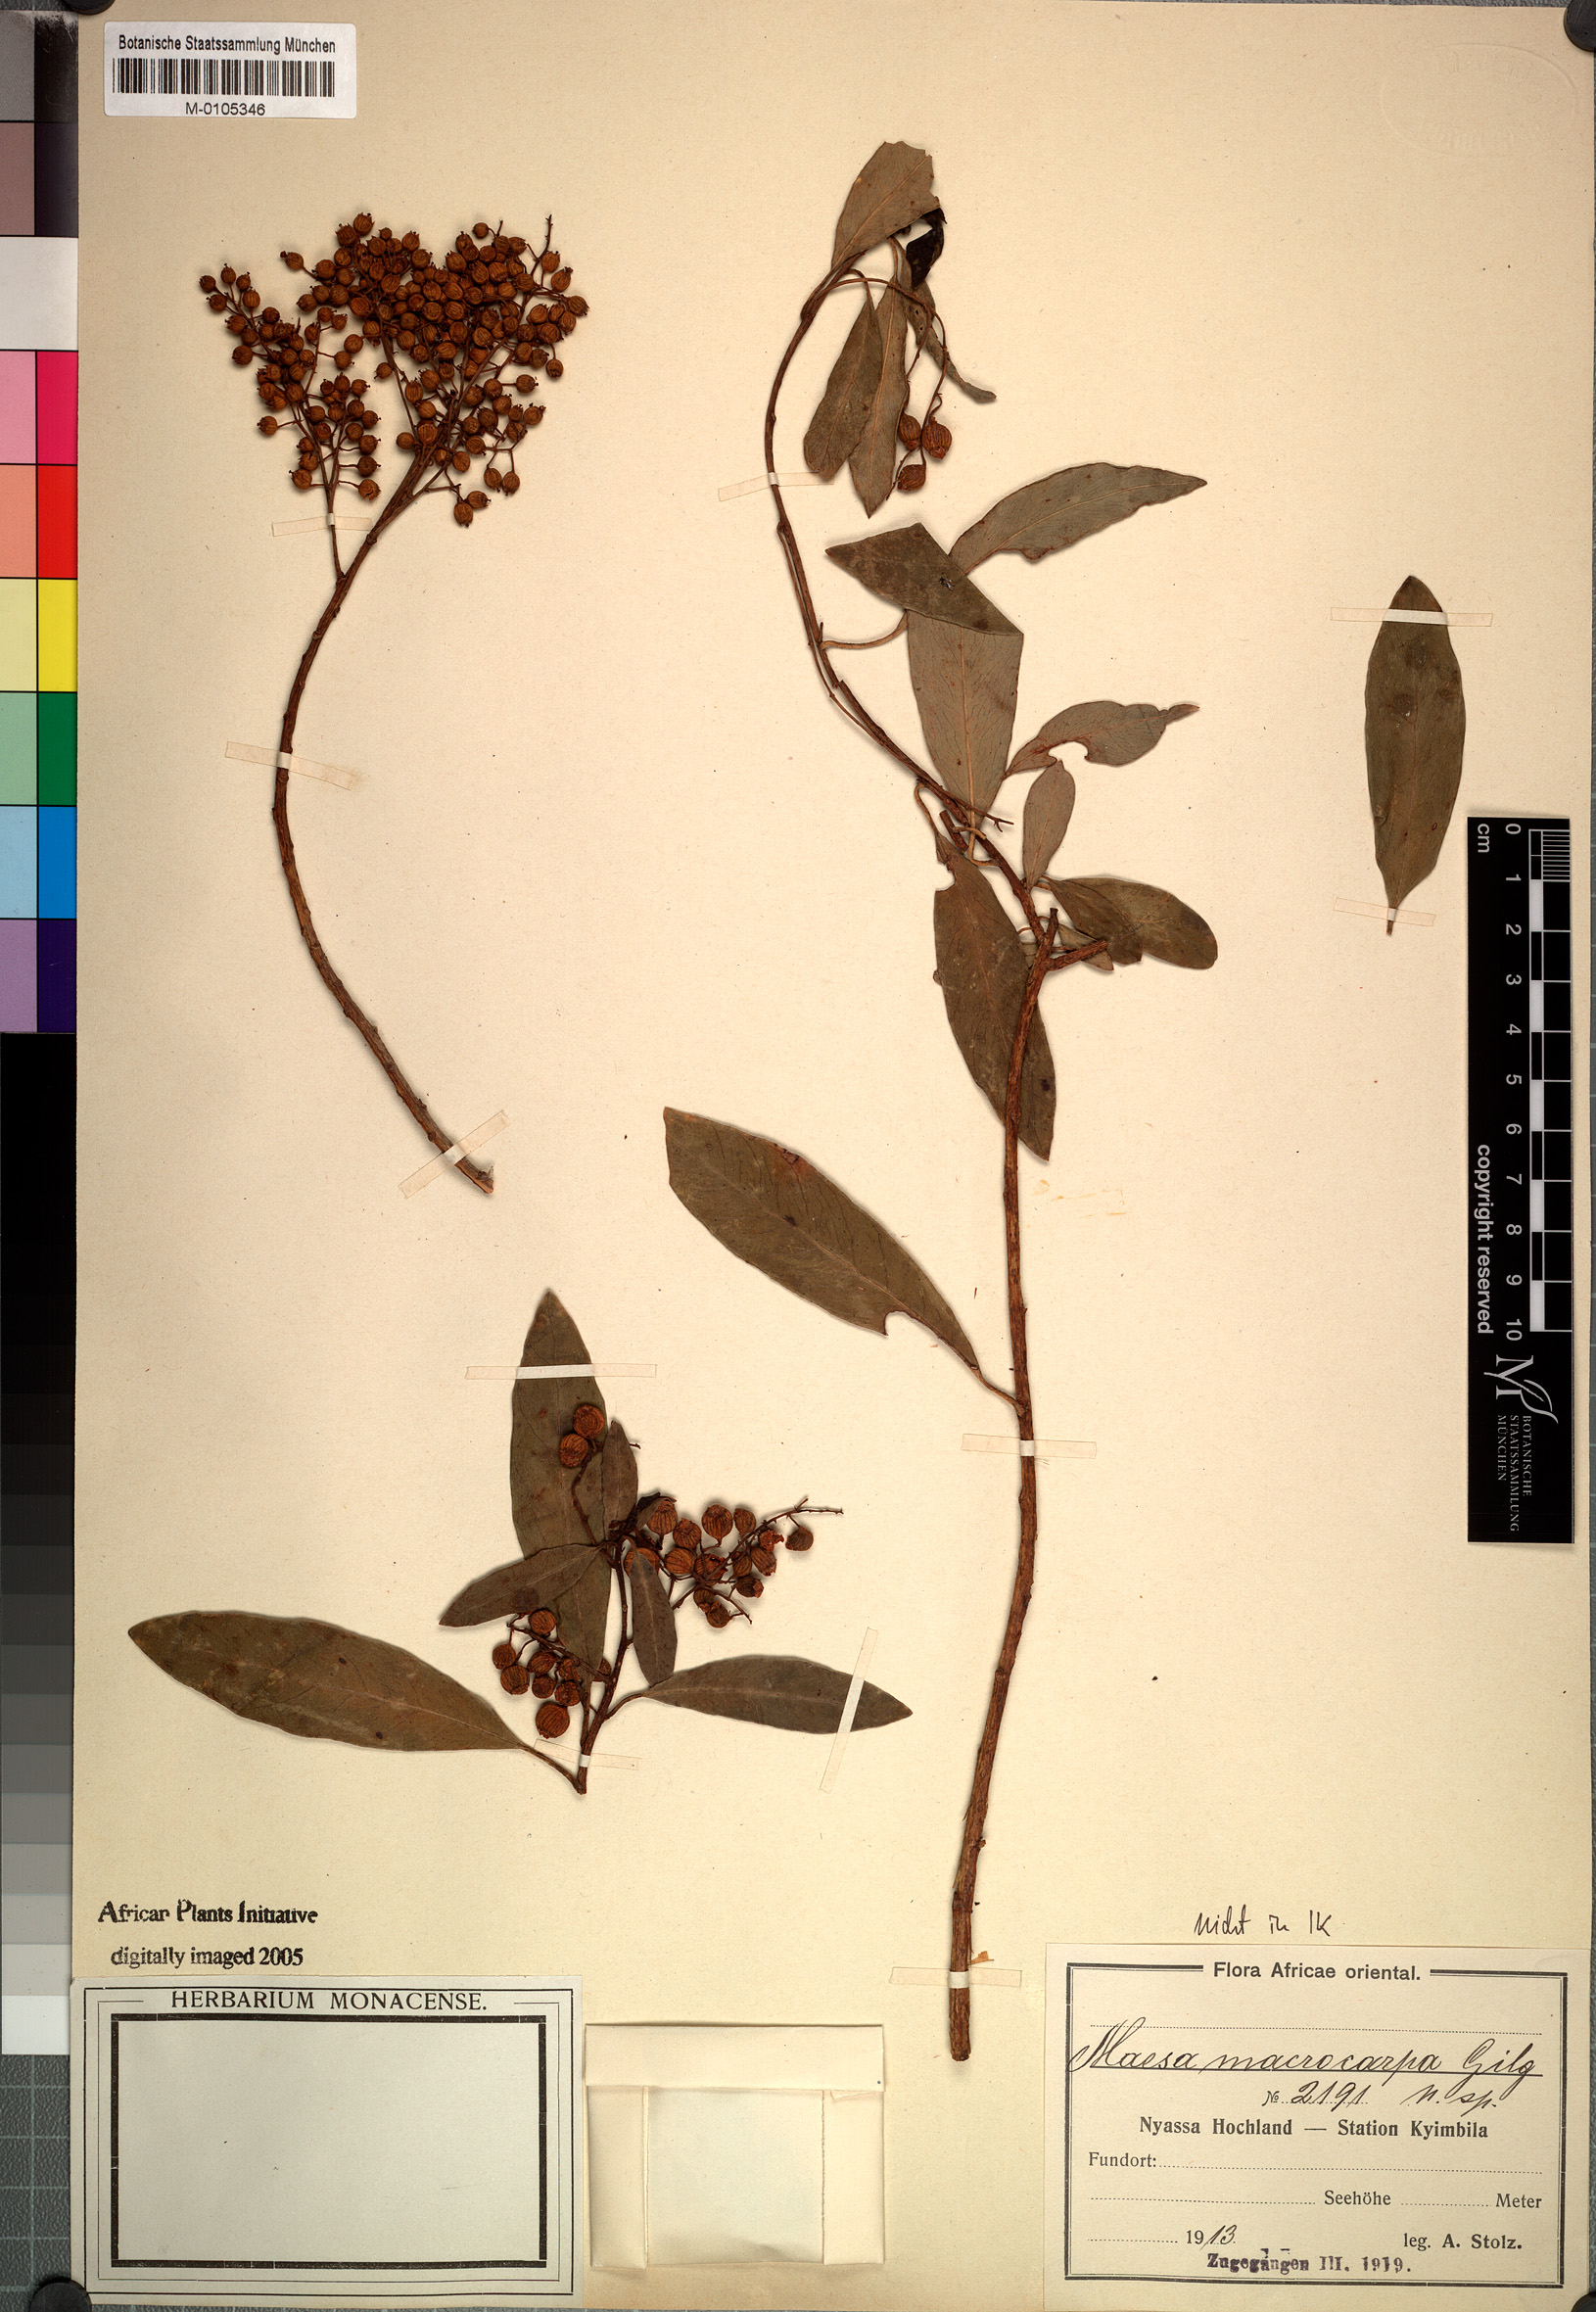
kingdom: Plantae
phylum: Tracheophyta
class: Magnoliopsida
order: Ericales
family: Primulaceae
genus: Maesa
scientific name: Maesa macrocarpa
